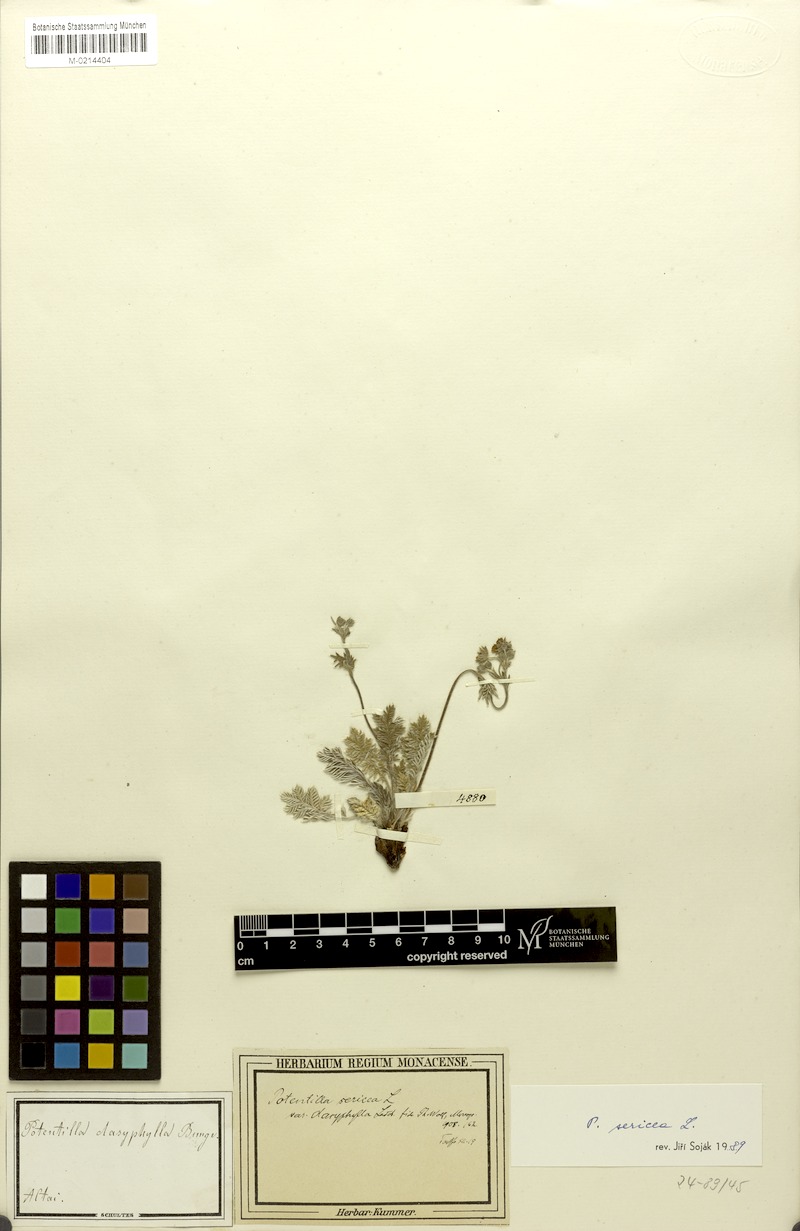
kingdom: Plantae
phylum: Tracheophyta
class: Magnoliopsida
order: Rosales
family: Rosaceae
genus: Potentilla
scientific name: Potentilla sericea
